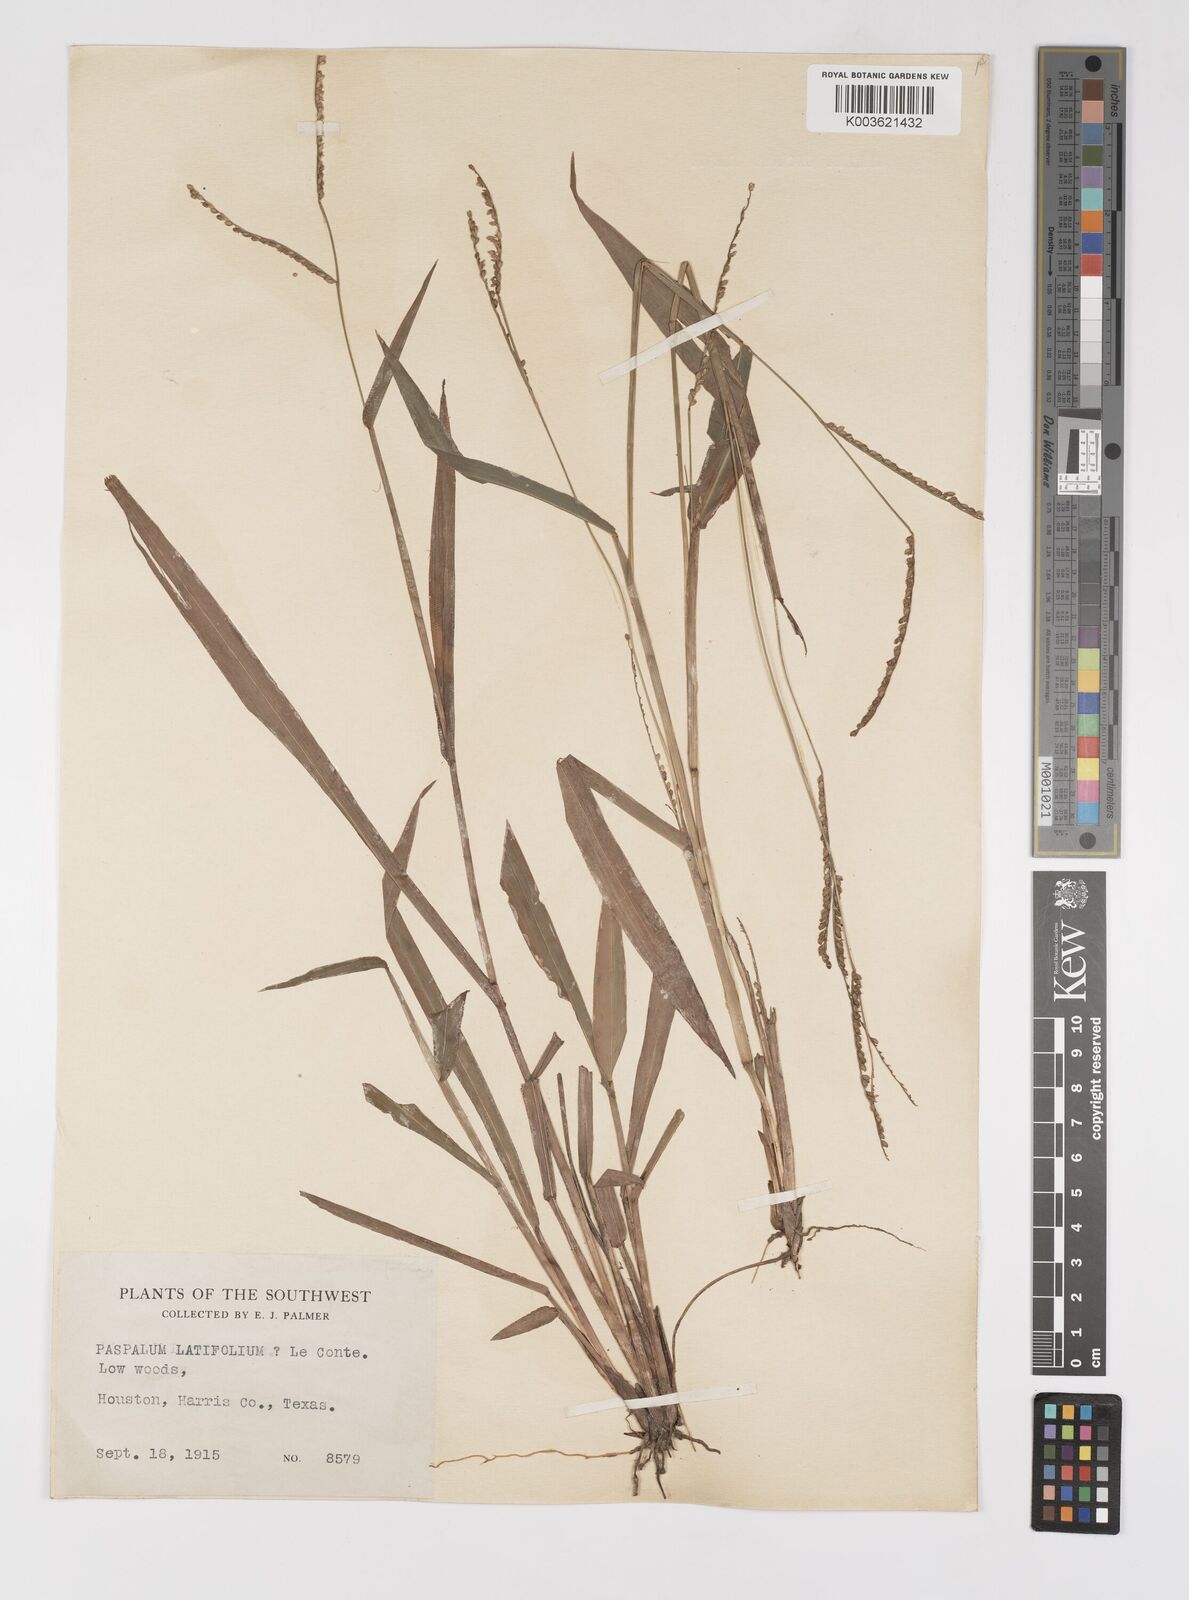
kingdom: Plantae
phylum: Tracheophyta
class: Liliopsida
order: Poales
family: Poaceae
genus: Paspalum
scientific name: Paspalum
